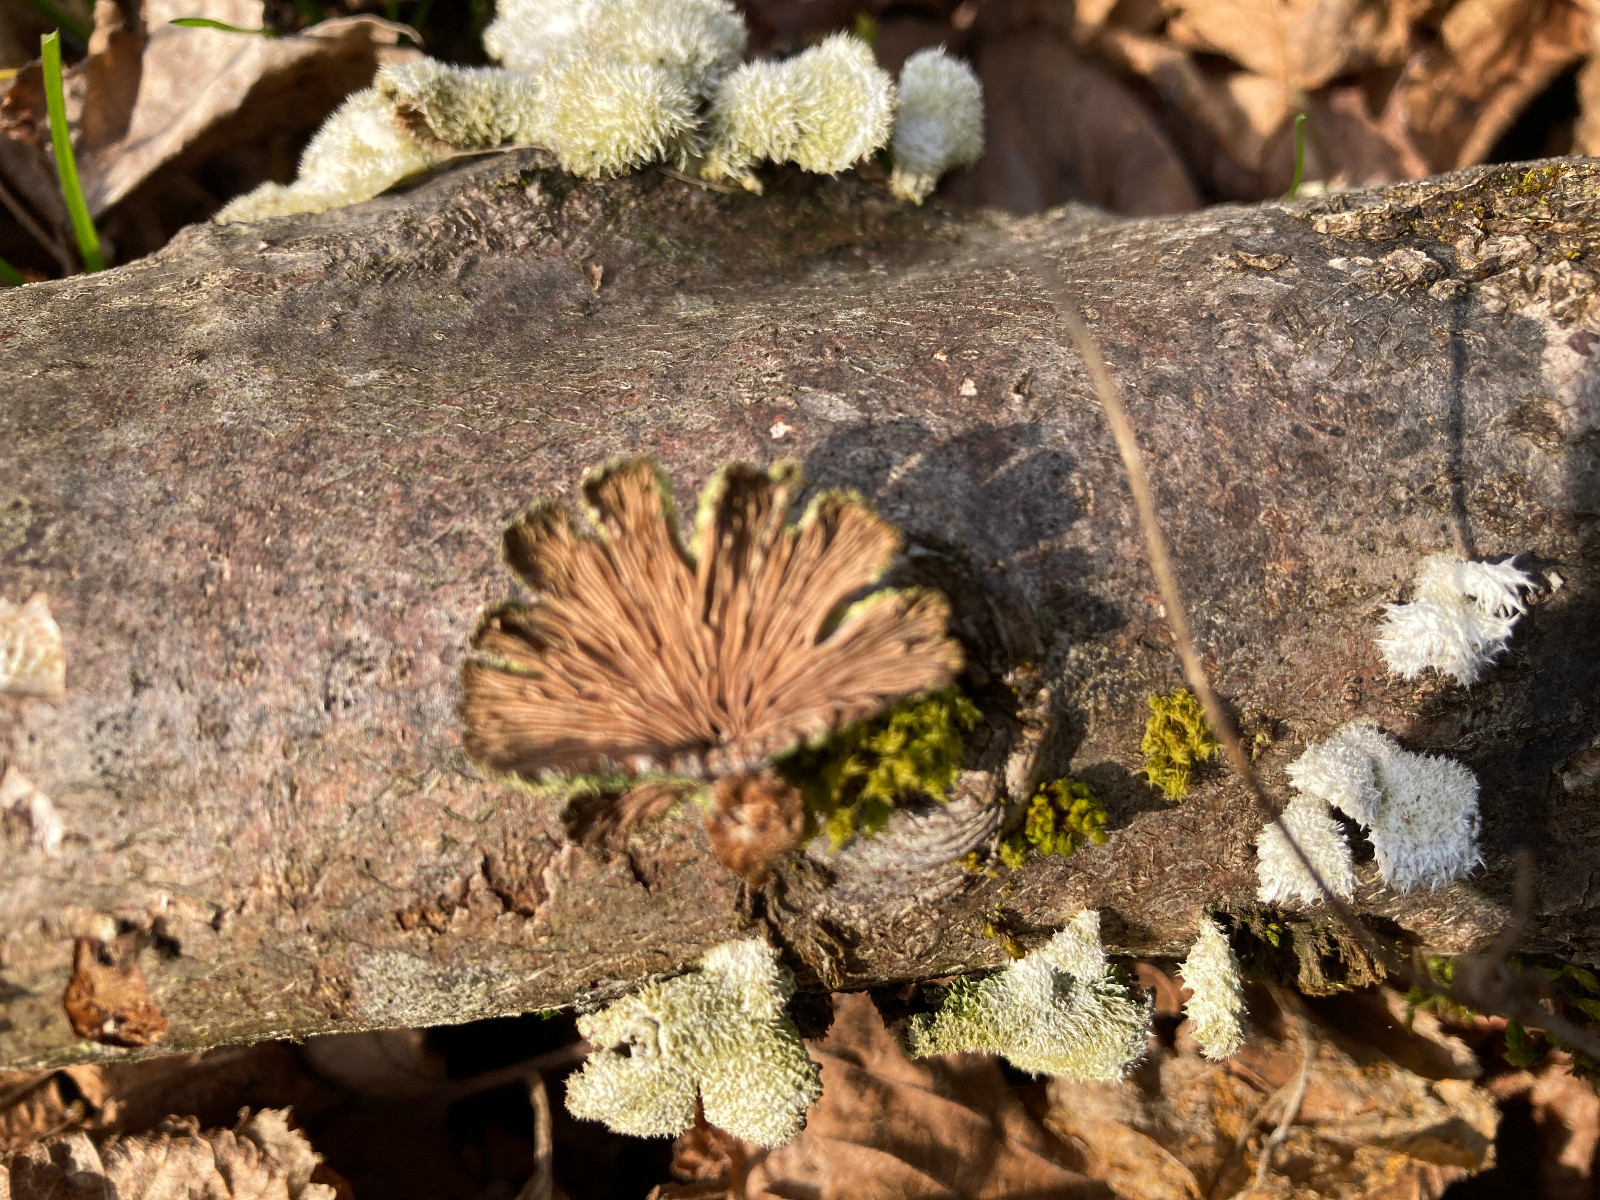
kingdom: Fungi
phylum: Basidiomycota
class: Agaricomycetes
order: Agaricales
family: Schizophyllaceae
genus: Schizophyllum
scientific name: Schizophyllum commune
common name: kløvblad
